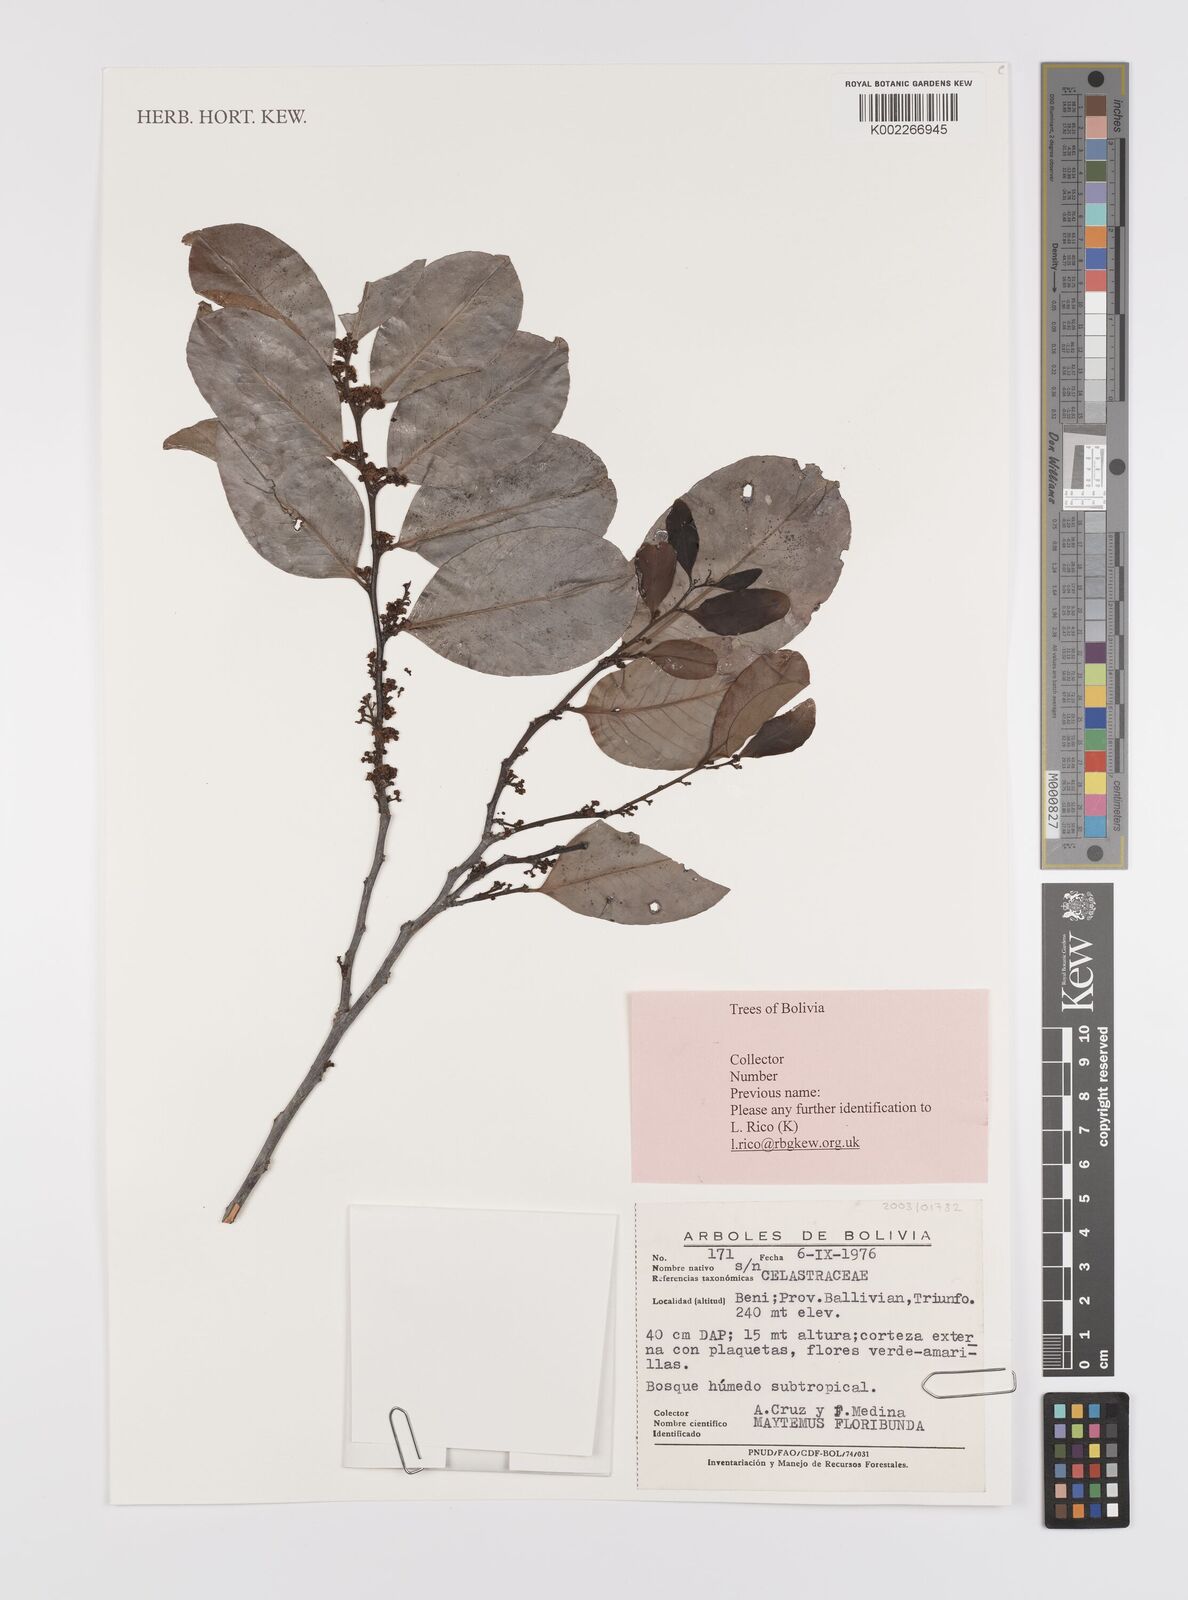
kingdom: Plantae
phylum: Tracheophyta
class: Magnoliopsida
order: Celastrales
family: Celastraceae
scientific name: Celastraceae
